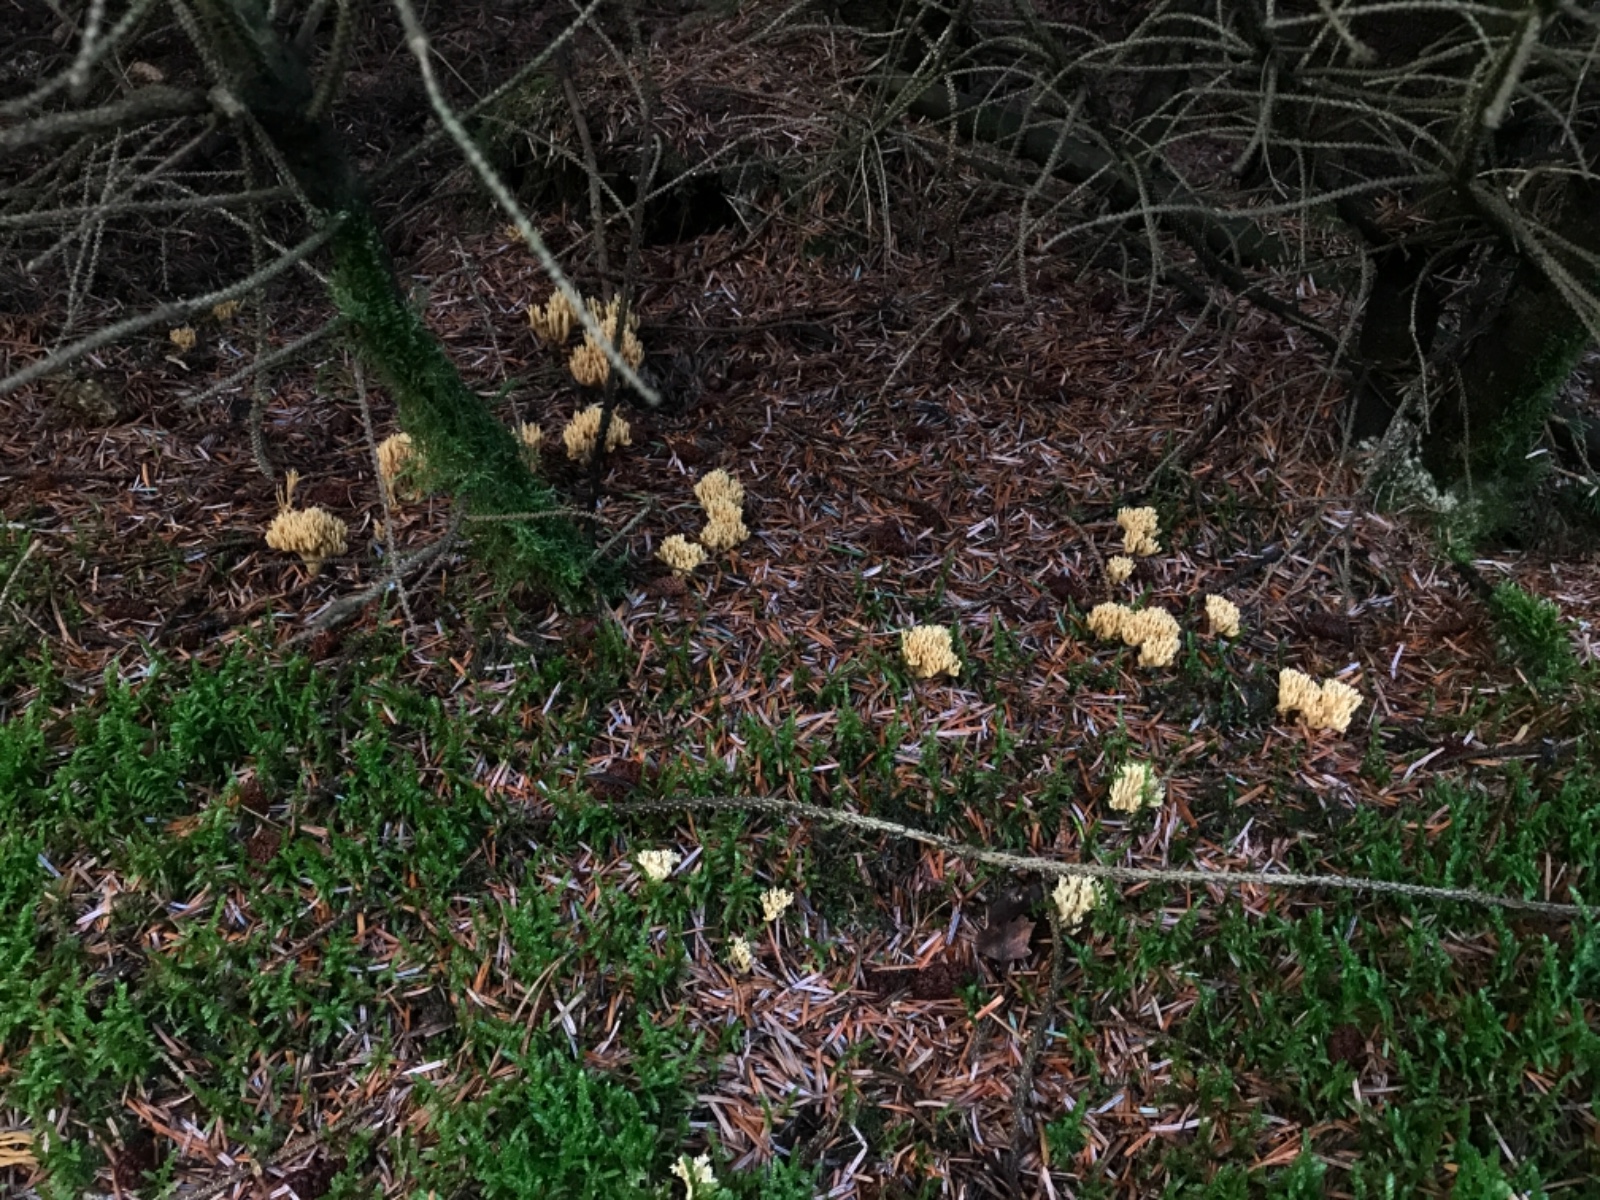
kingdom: Fungi
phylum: Basidiomycota
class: Agaricomycetes
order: Gomphales
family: Gomphaceae
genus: Phaeoclavulina
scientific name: Phaeoclavulina eumorpha
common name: gran-koralsvamp
